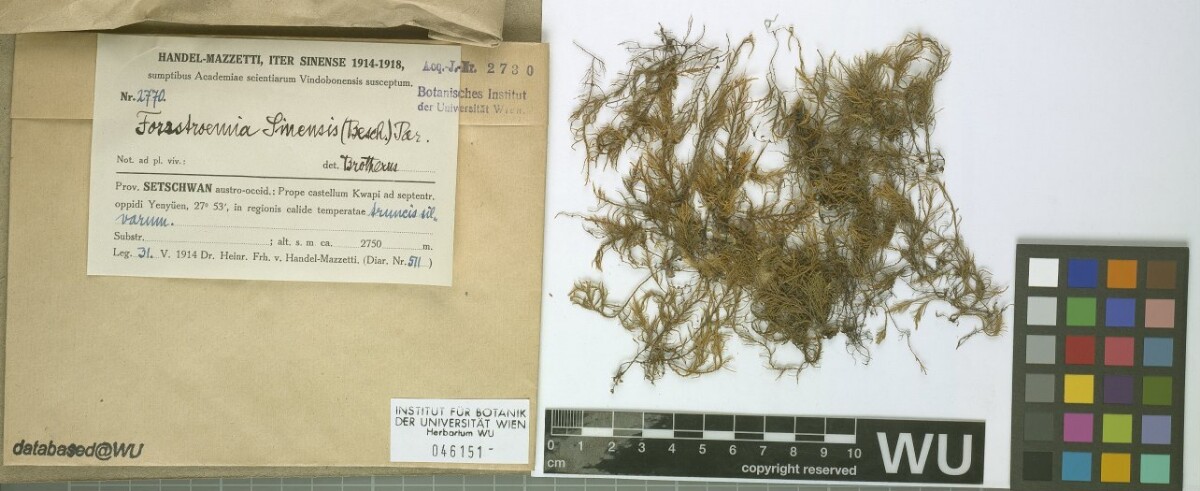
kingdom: Plantae
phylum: Bryophyta
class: Bryopsida
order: Hypnales
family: Neckeraceae
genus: Forsstroemia
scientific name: Forsstroemia producta
